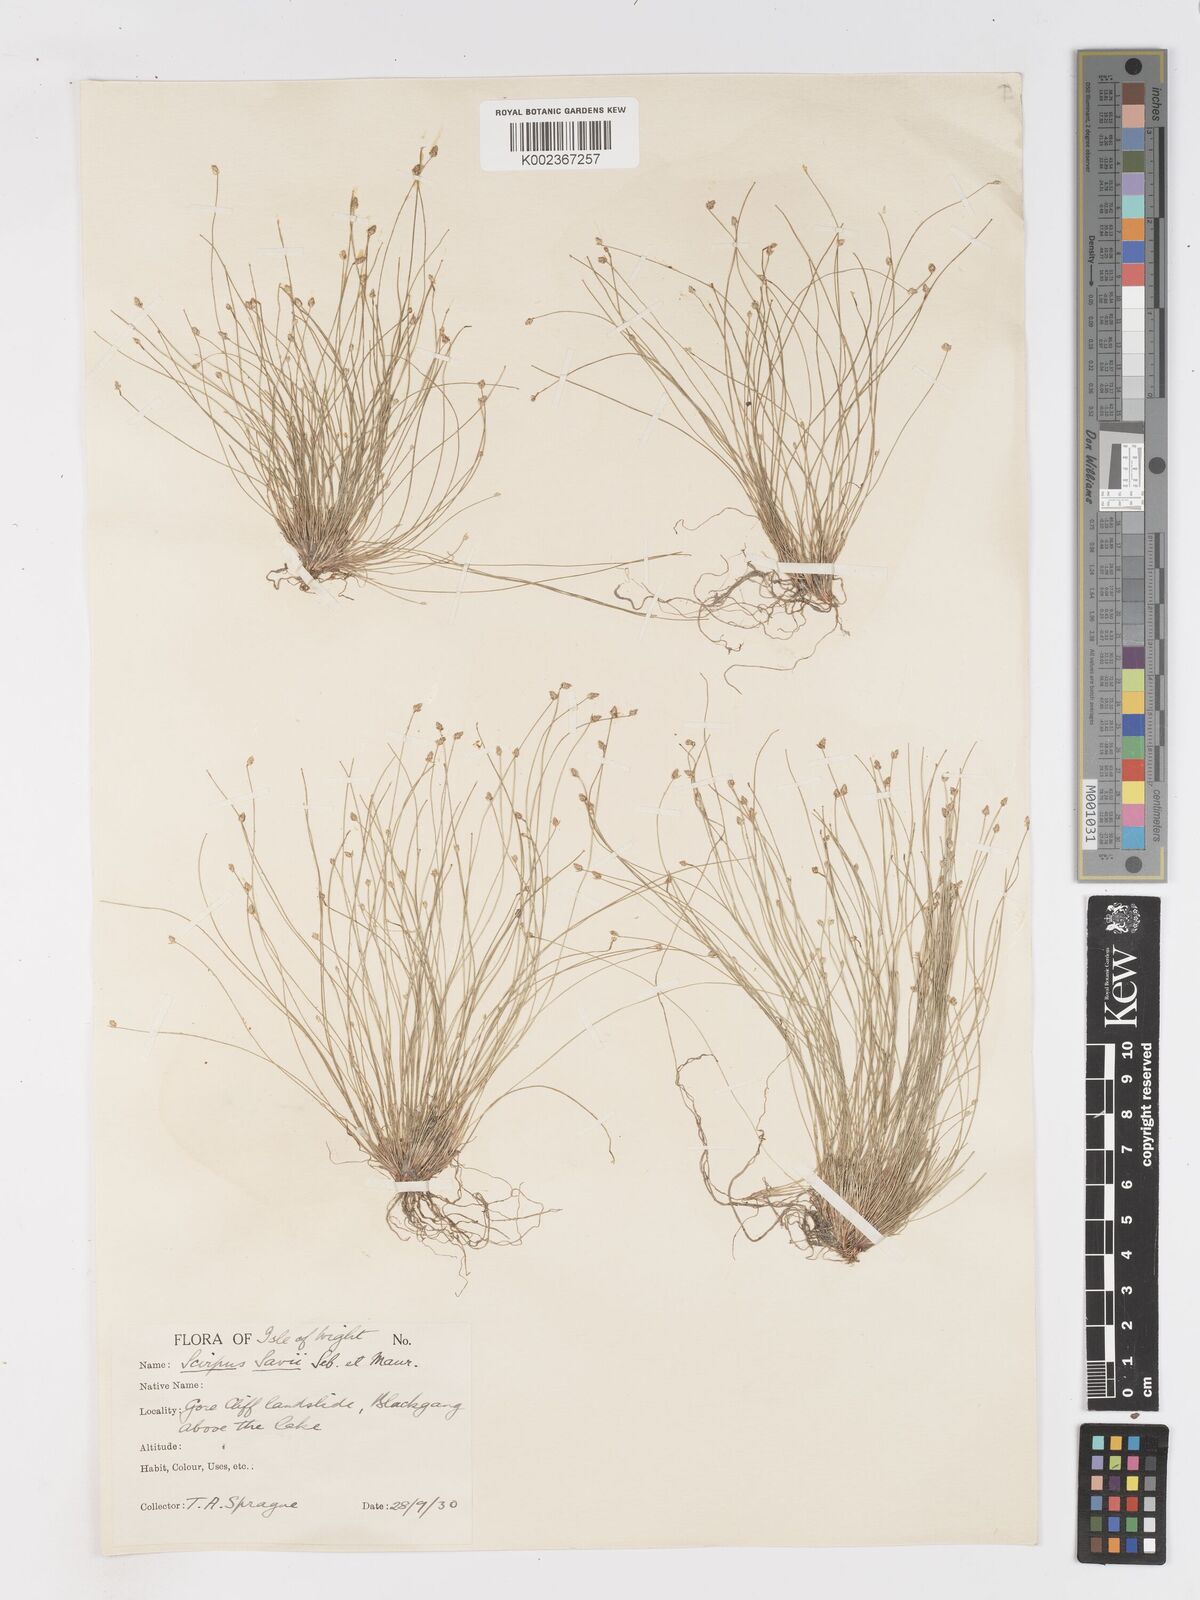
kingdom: Plantae
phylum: Tracheophyta
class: Liliopsida
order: Poales
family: Cyperaceae
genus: Isolepis
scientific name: Isolepis cernua
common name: Slender club-rush
